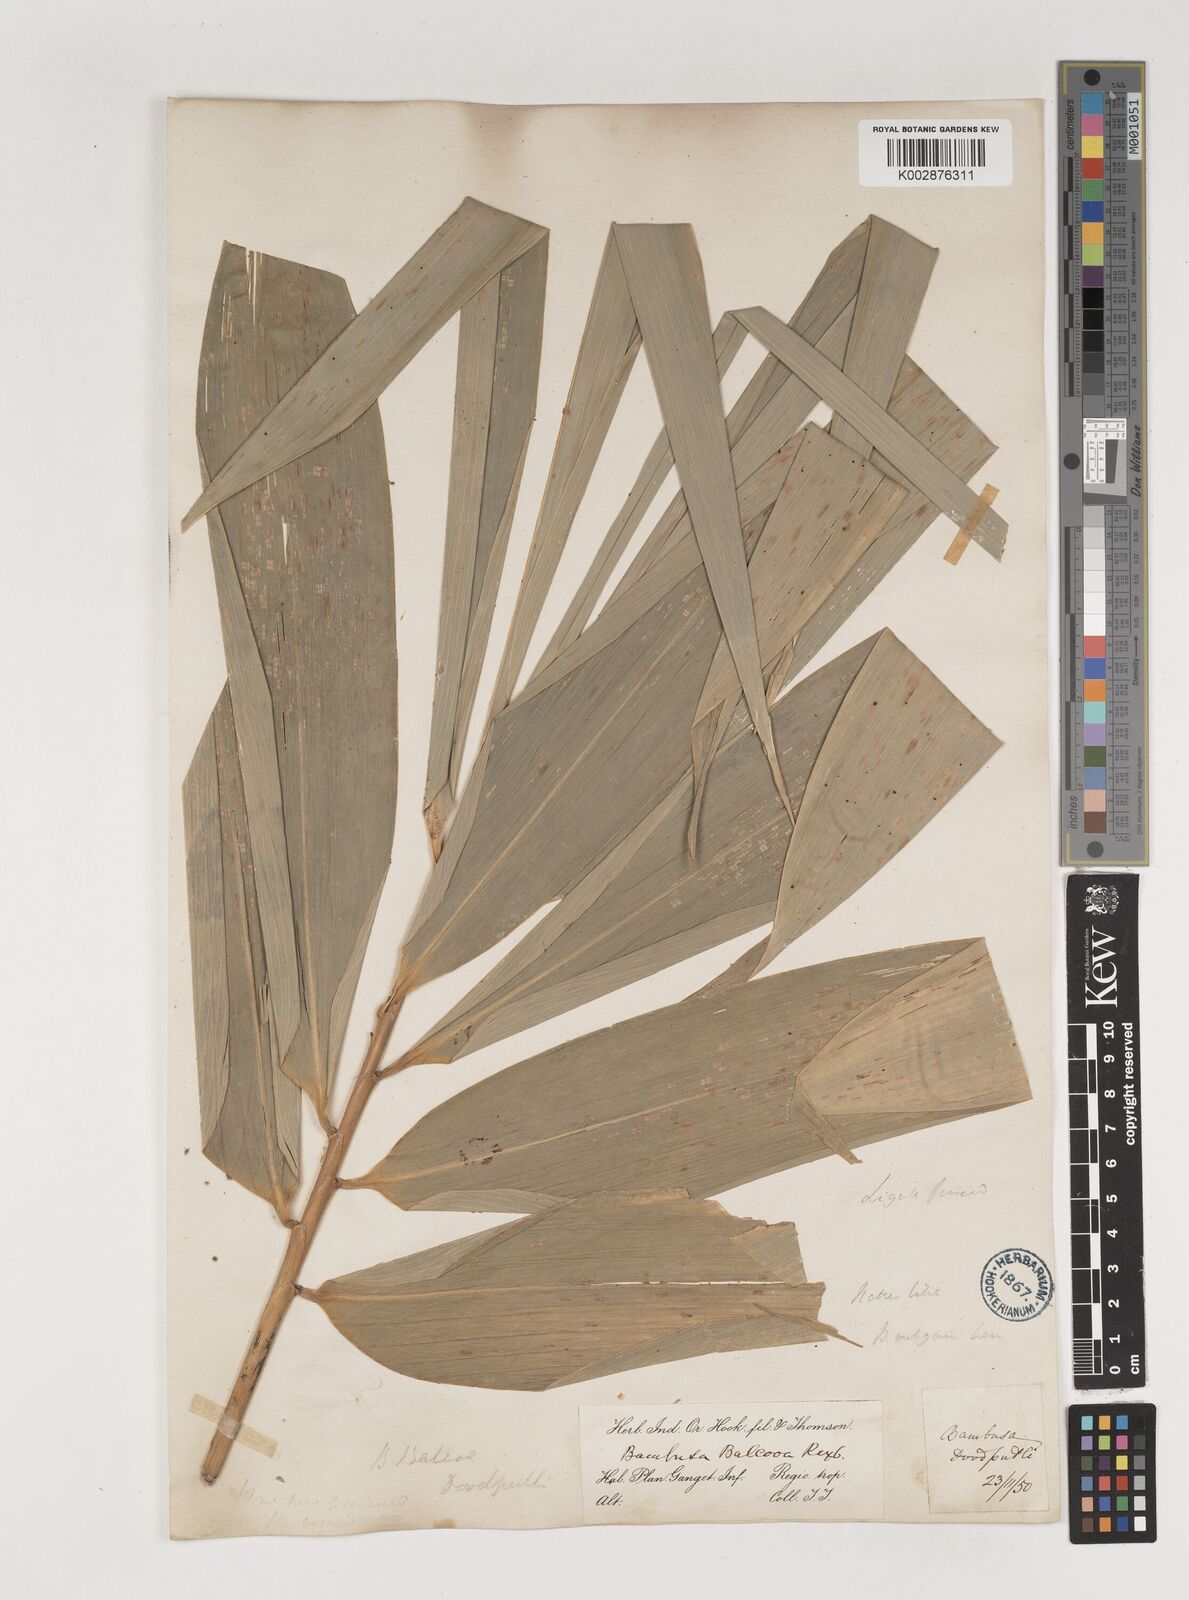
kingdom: Plantae
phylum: Tracheophyta
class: Liliopsida
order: Poales
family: Poaceae
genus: Bambusa
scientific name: Bambusa balcooa
